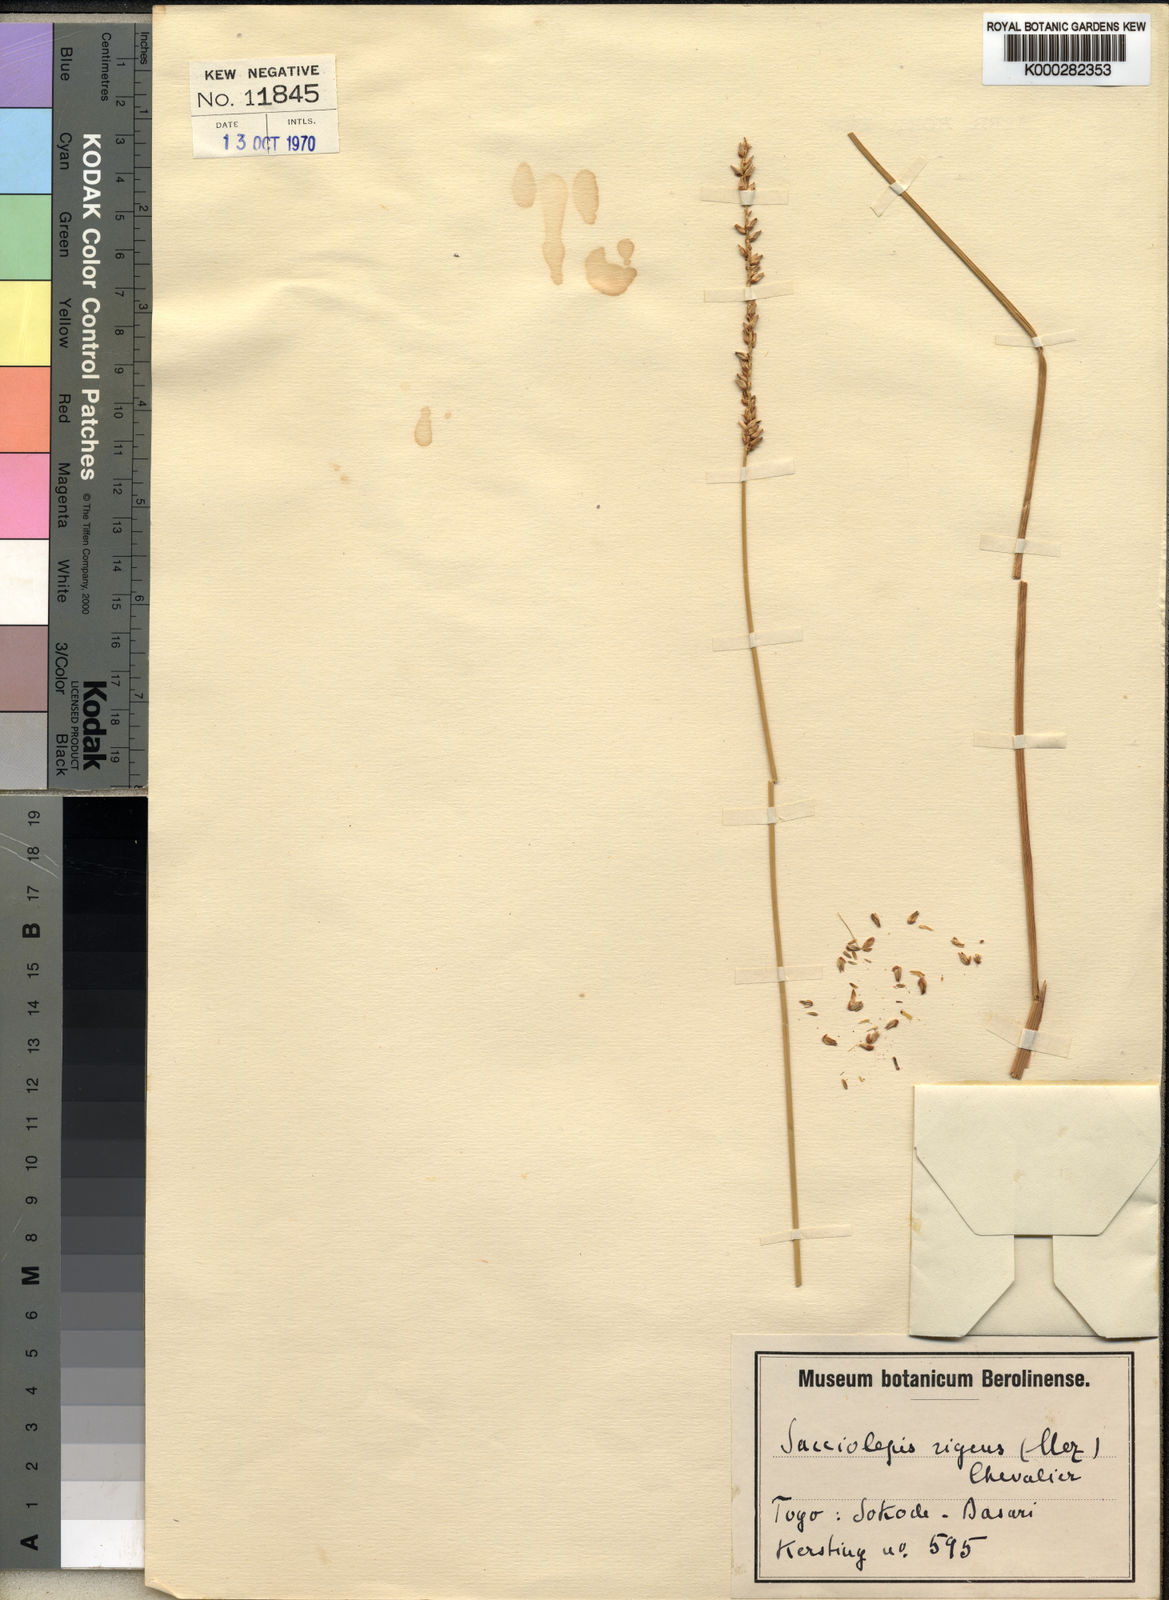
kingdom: Plantae
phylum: Tracheophyta
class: Liliopsida
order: Poales
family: Poaceae
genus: Sacciolepis
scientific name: Sacciolepis leptorrhachis
